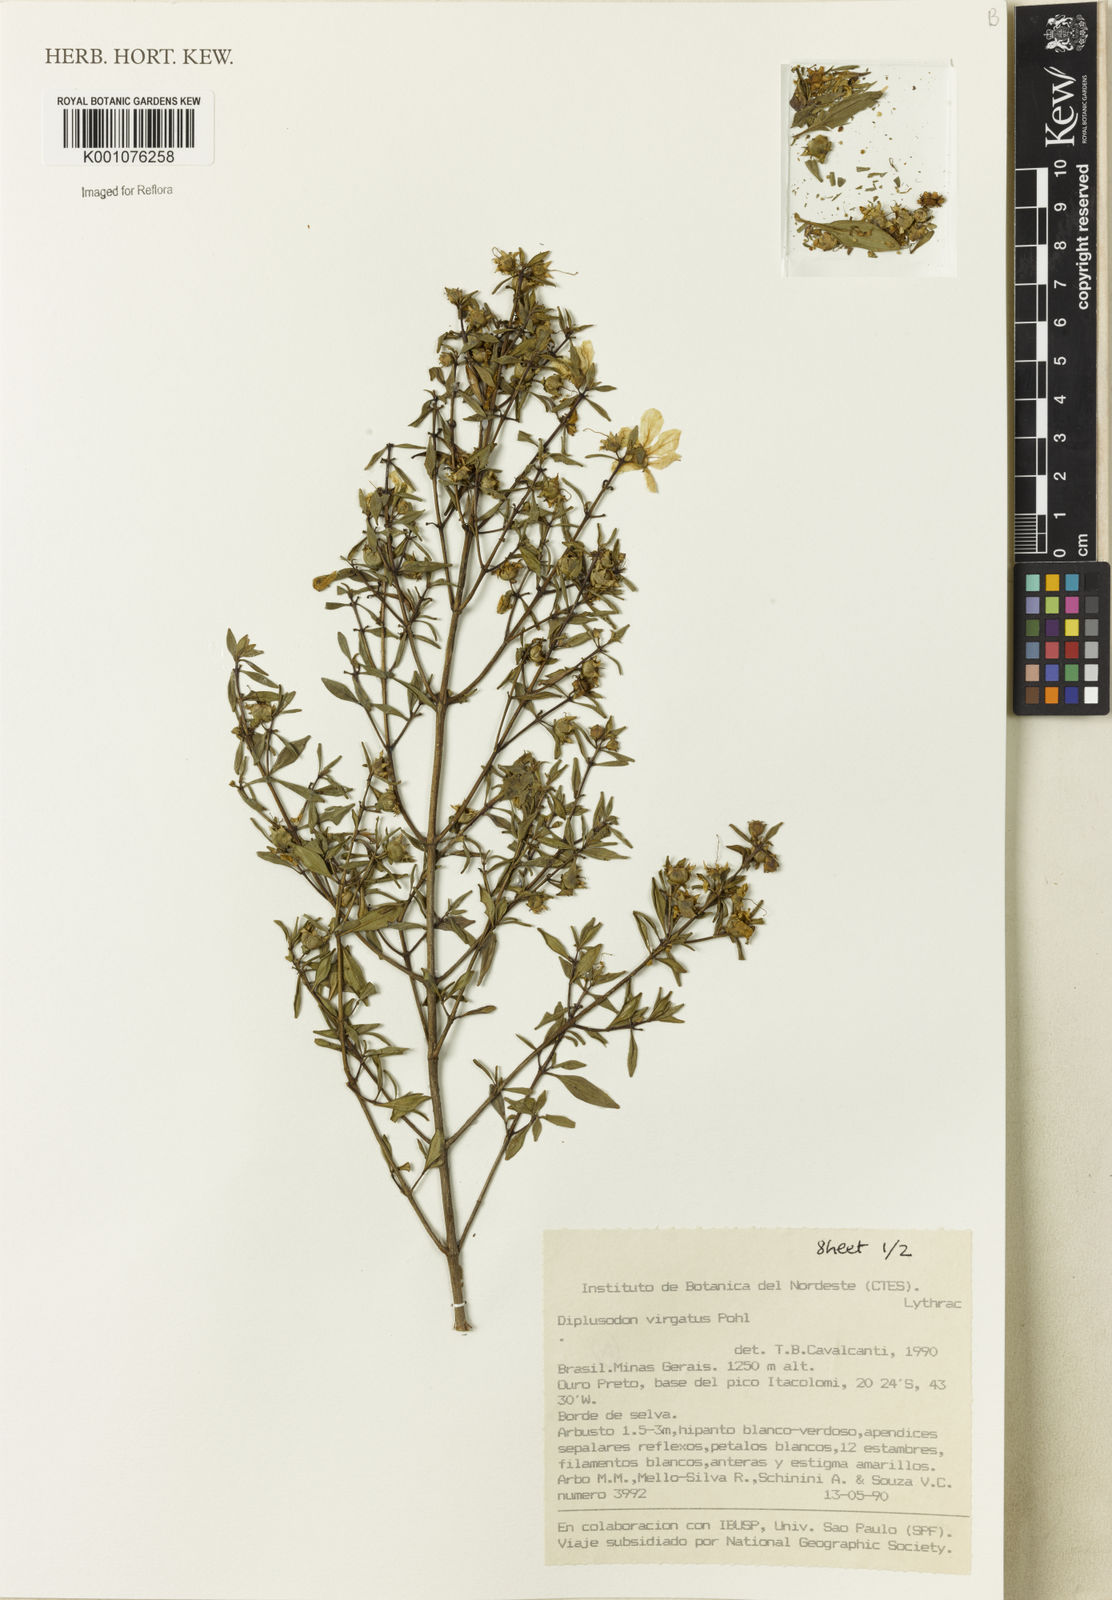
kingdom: Plantae
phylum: Tracheophyta
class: Magnoliopsida
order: Myrtales
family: Lythraceae
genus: Diplusodon
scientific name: Diplusodon virgatus
